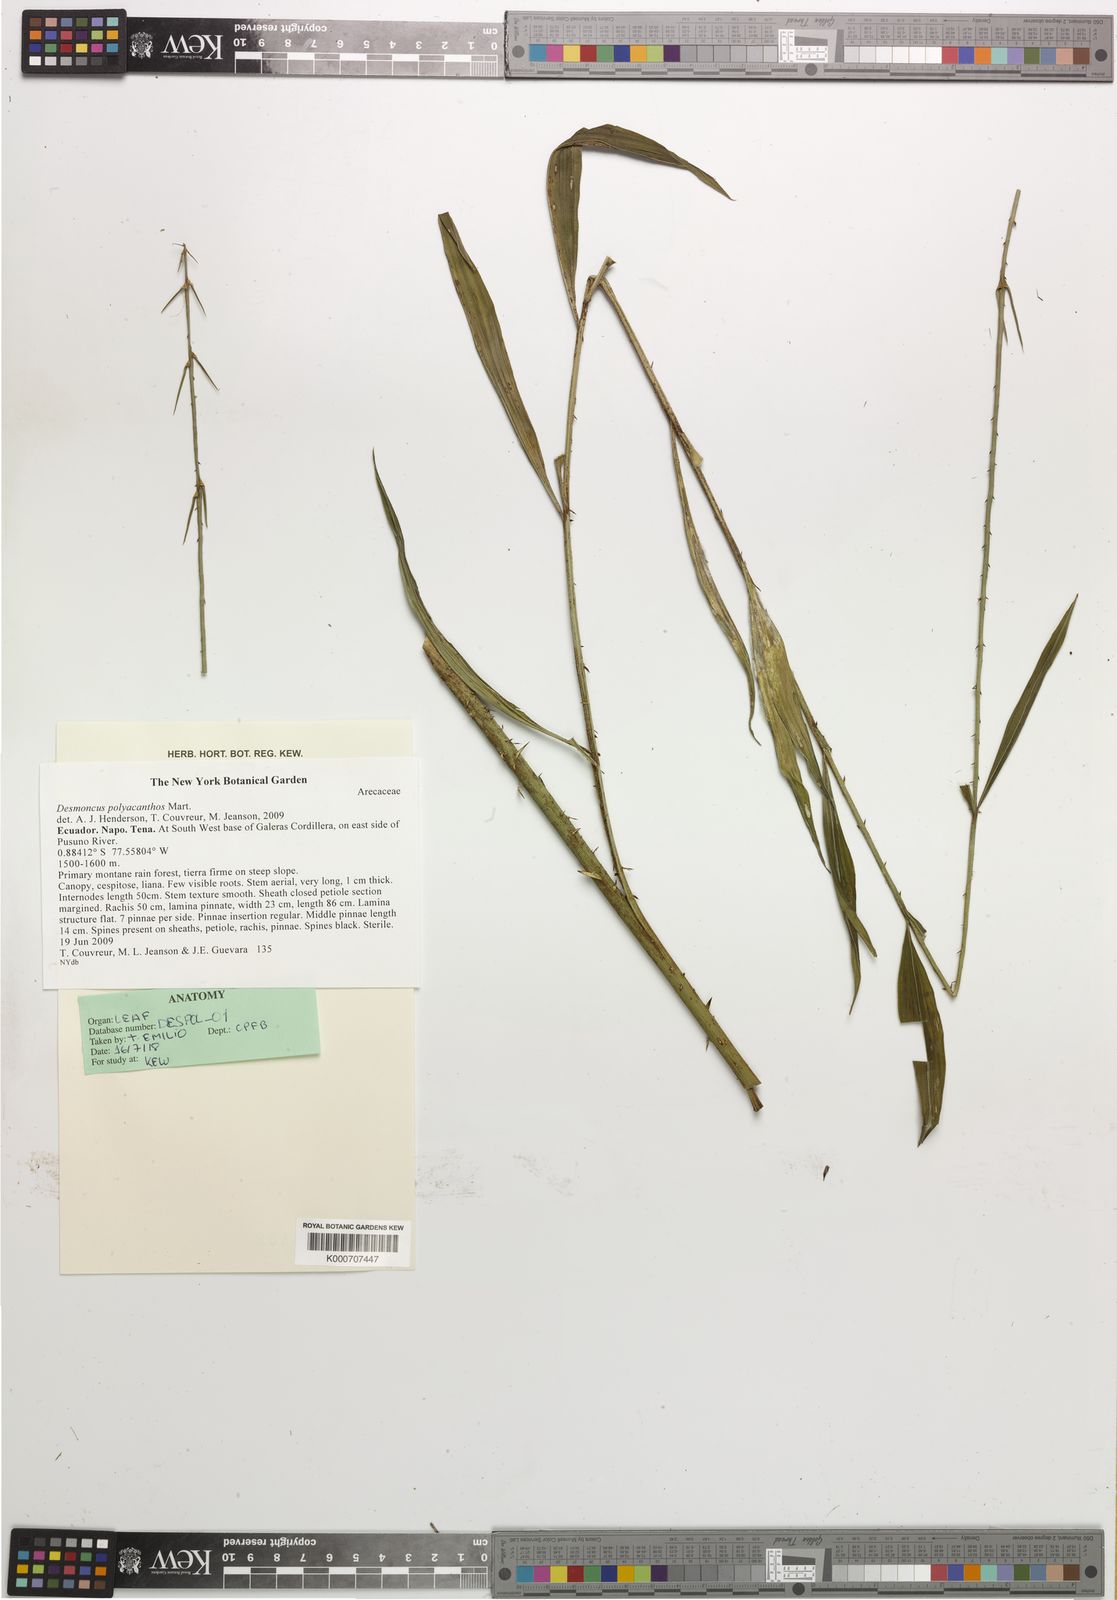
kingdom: Plantae
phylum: Tracheophyta
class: Liliopsida
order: Arecales
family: Arecaceae
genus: Desmoncus
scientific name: Desmoncus polyacanthos
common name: Suriname bramble palm
